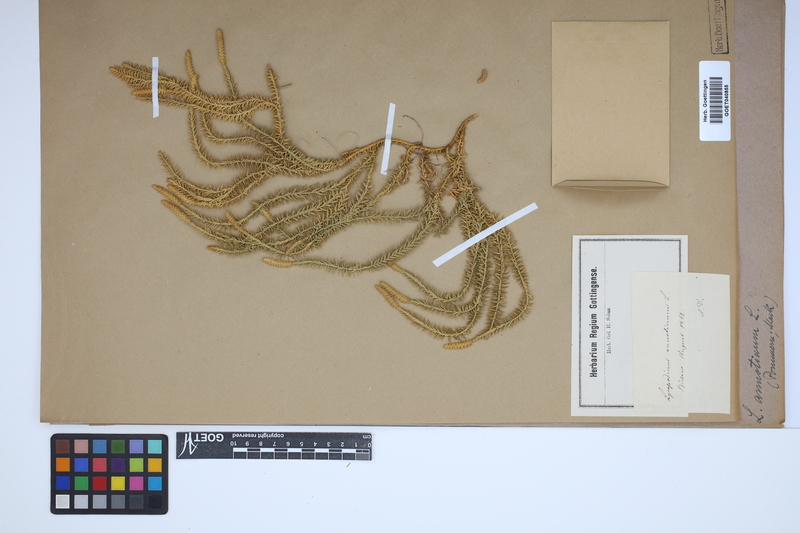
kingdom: Plantae
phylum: Tracheophyta
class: Lycopodiopsida
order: Lycopodiales
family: Lycopodiaceae
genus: Spinulum
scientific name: Spinulum annotinum
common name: Interrupted club-moss
